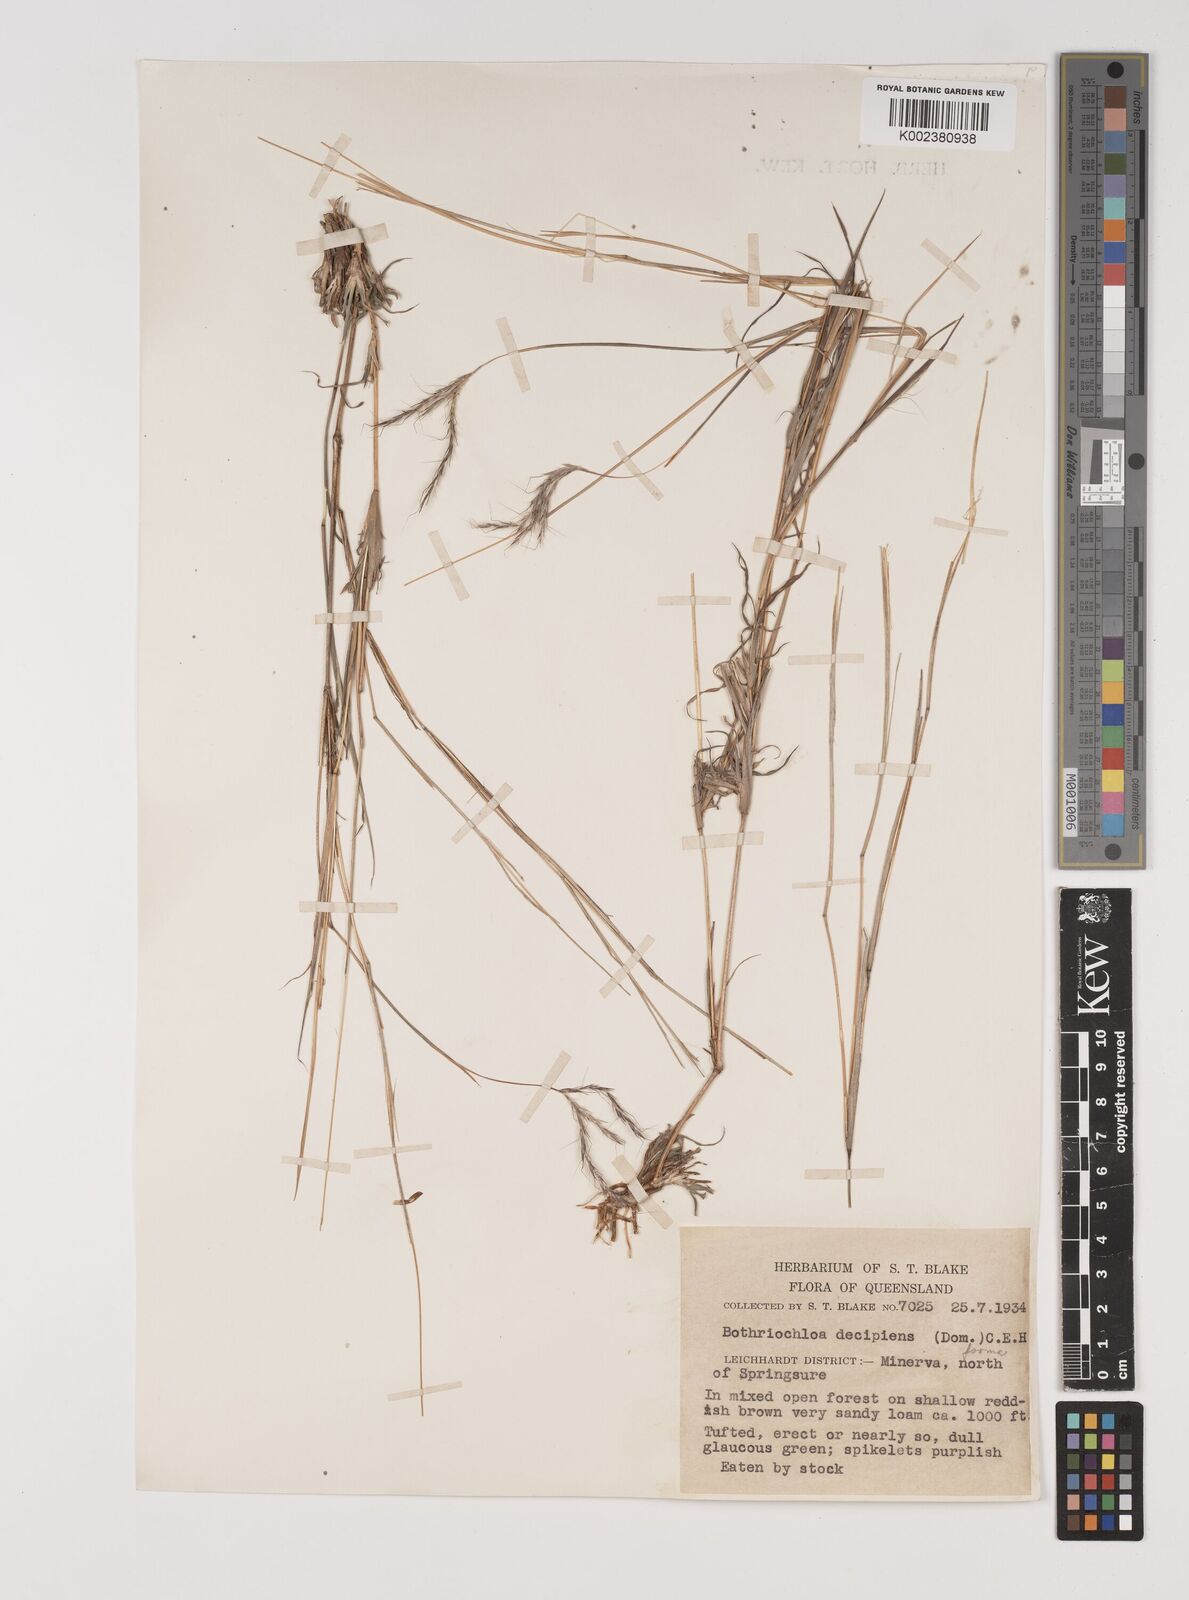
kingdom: Plantae
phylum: Tracheophyta
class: Liliopsida
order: Poales
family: Poaceae
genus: Bothriochloa
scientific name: Bothriochloa decipiens
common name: Pitted-bluegrass
